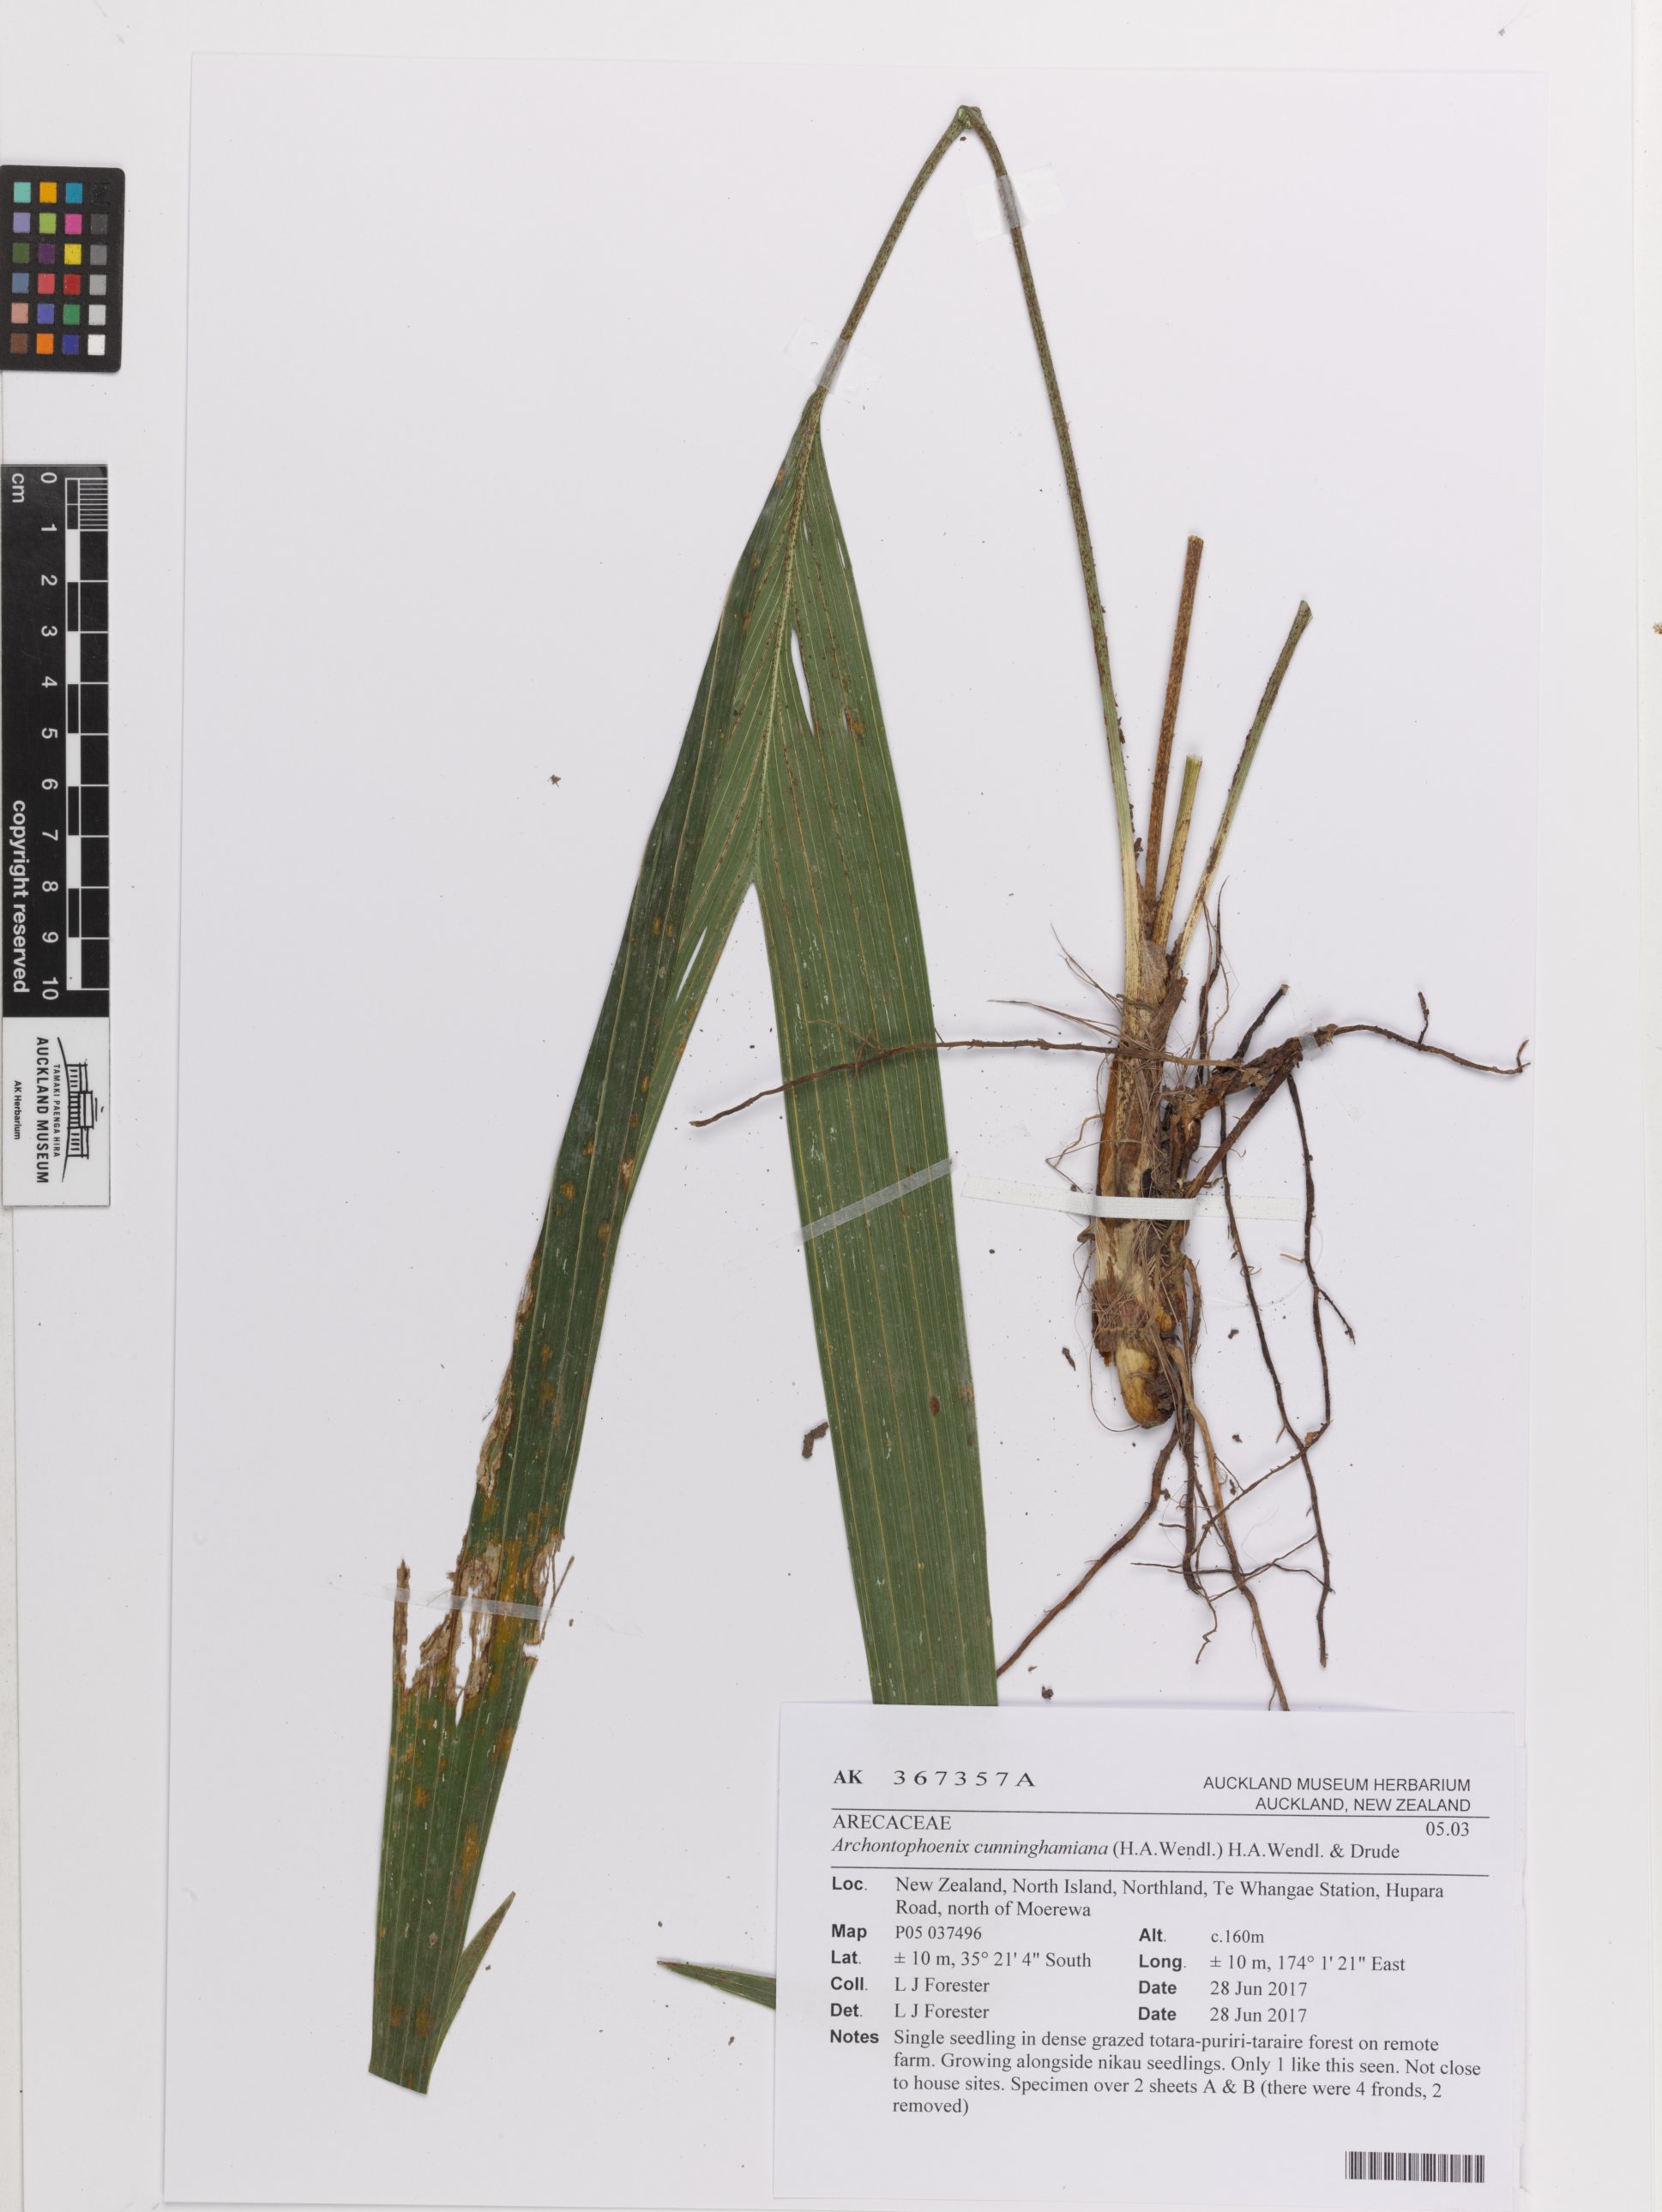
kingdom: Plantae
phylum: Tracheophyta
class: Liliopsida
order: Arecales
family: Arecaceae
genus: Archontophoenix
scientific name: Archontophoenix cunninghamiana
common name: Piccabeen bangalow palm
